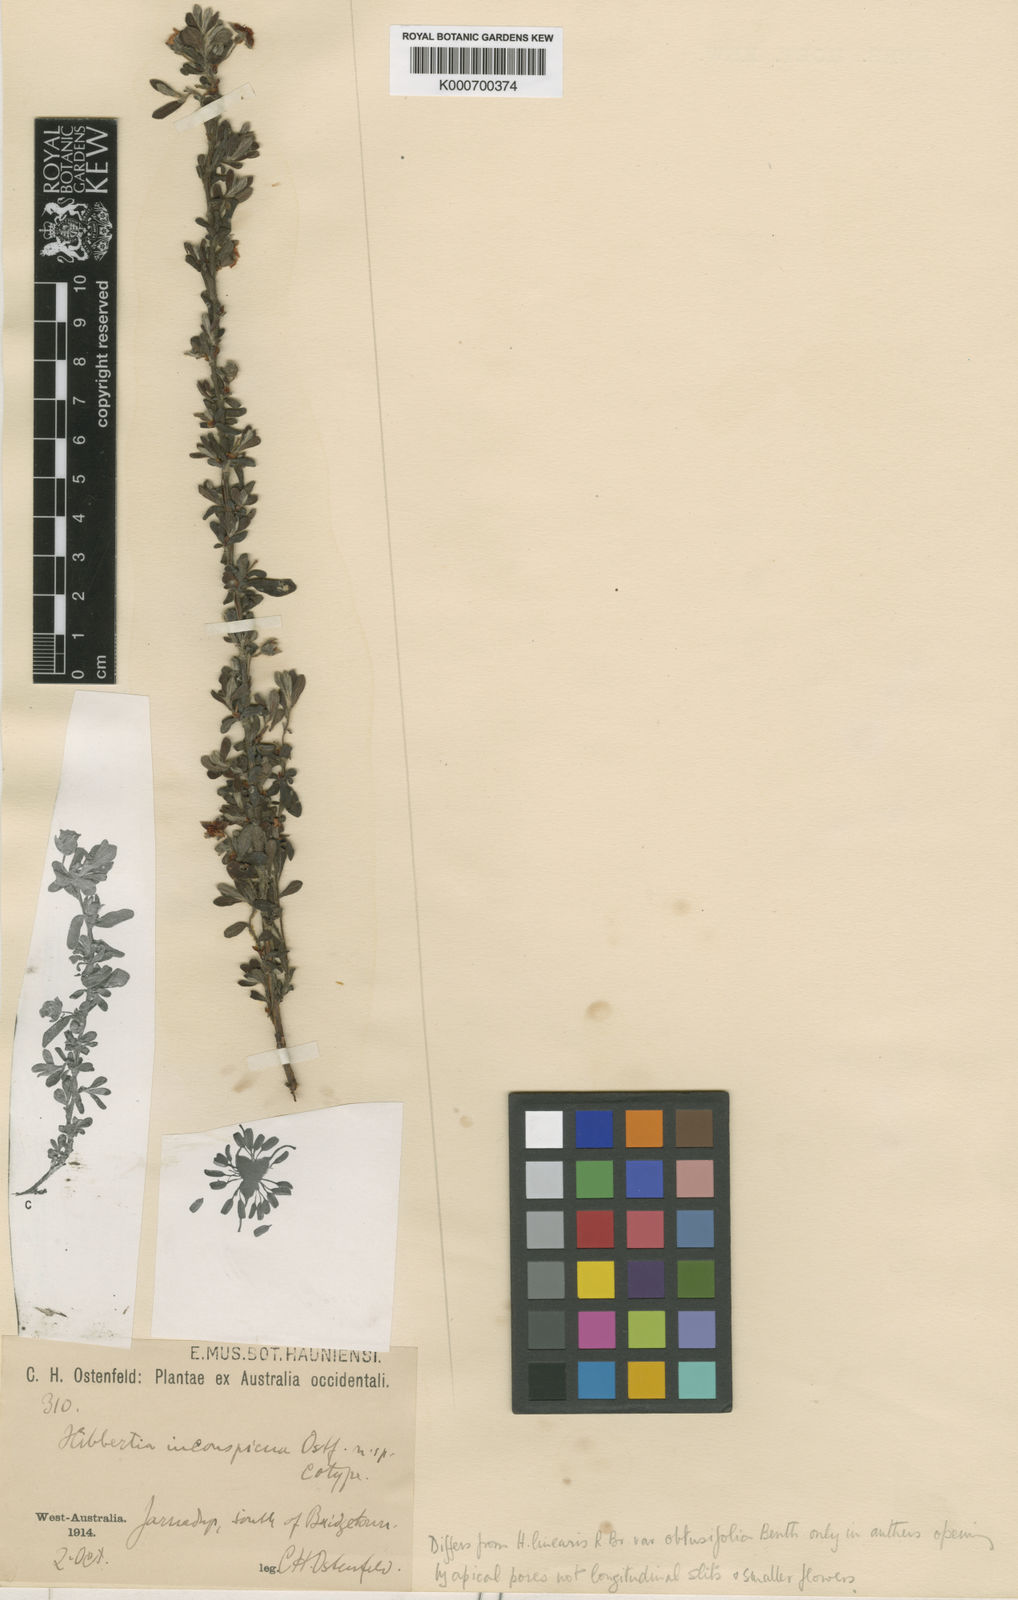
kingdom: Plantae
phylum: Tracheophyta
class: Magnoliopsida
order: Dilleniales
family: Dilleniaceae
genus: Hibbertia
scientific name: Hibbertia inconspicua
